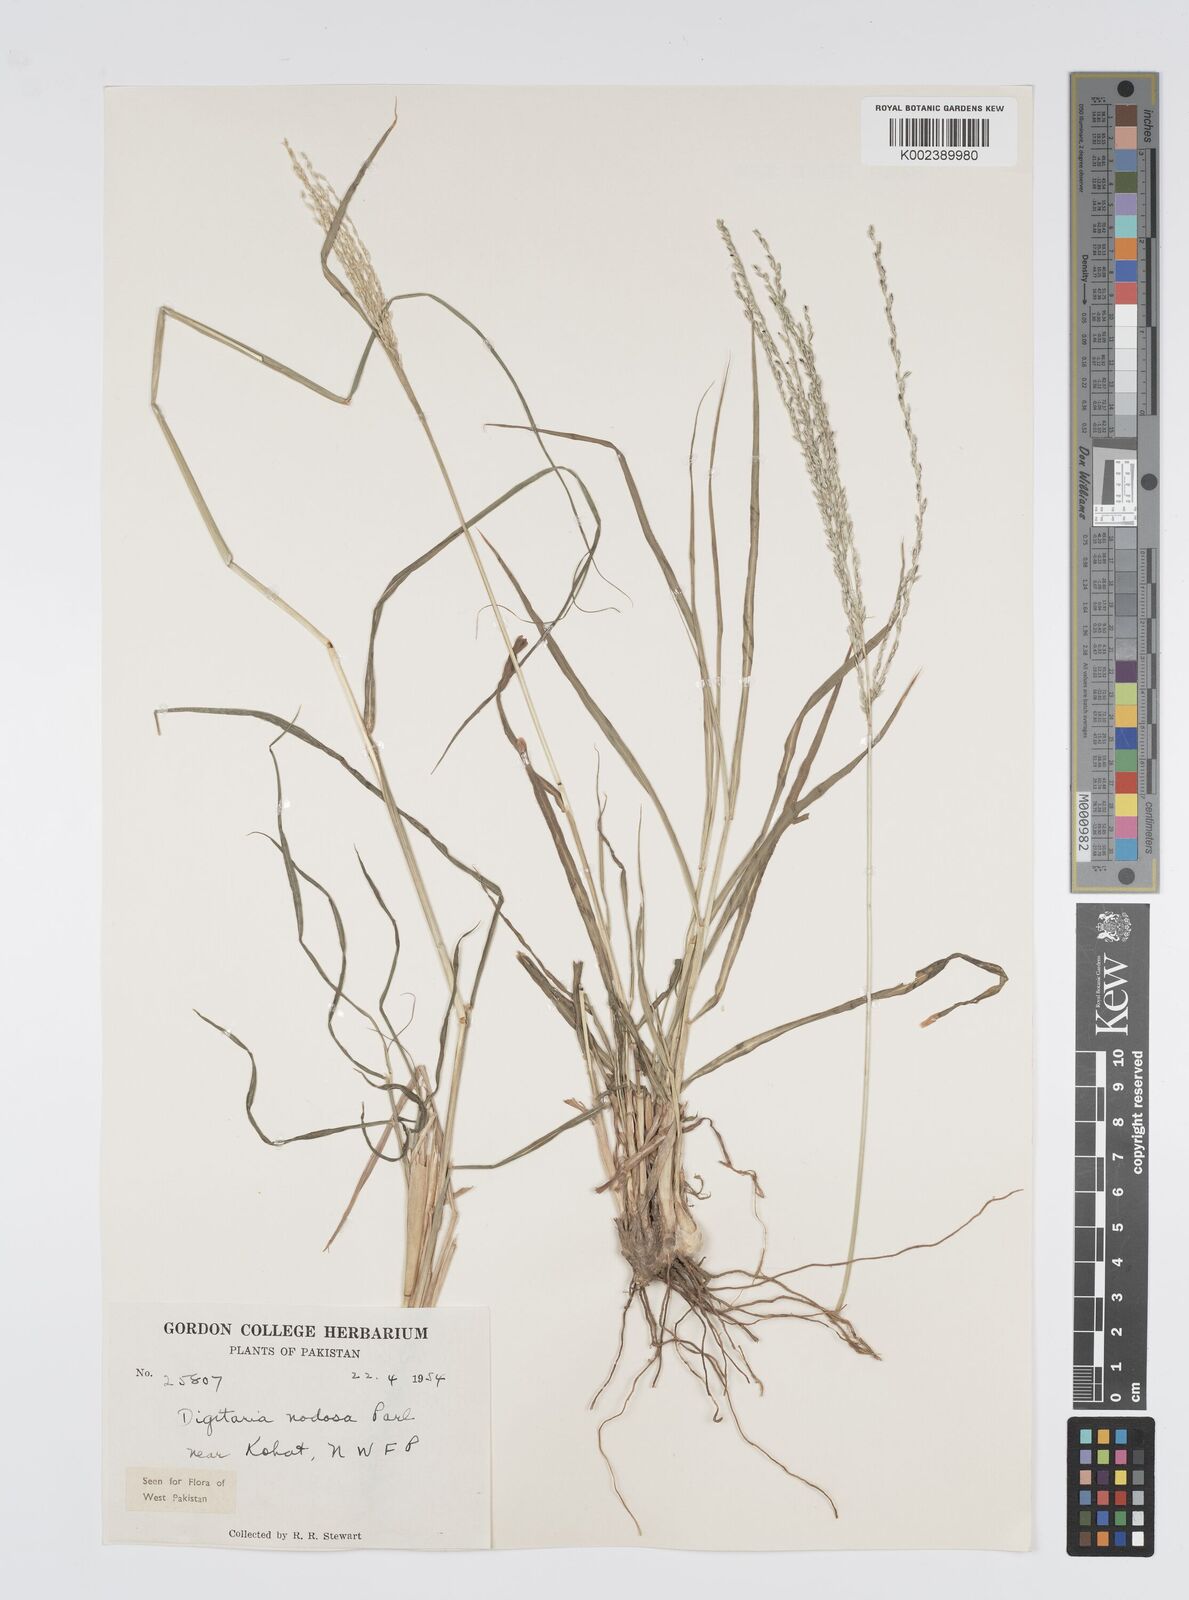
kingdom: Plantae
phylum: Tracheophyta
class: Liliopsida
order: Poales
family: Poaceae
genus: Digitaria
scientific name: Digitaria nodosa
